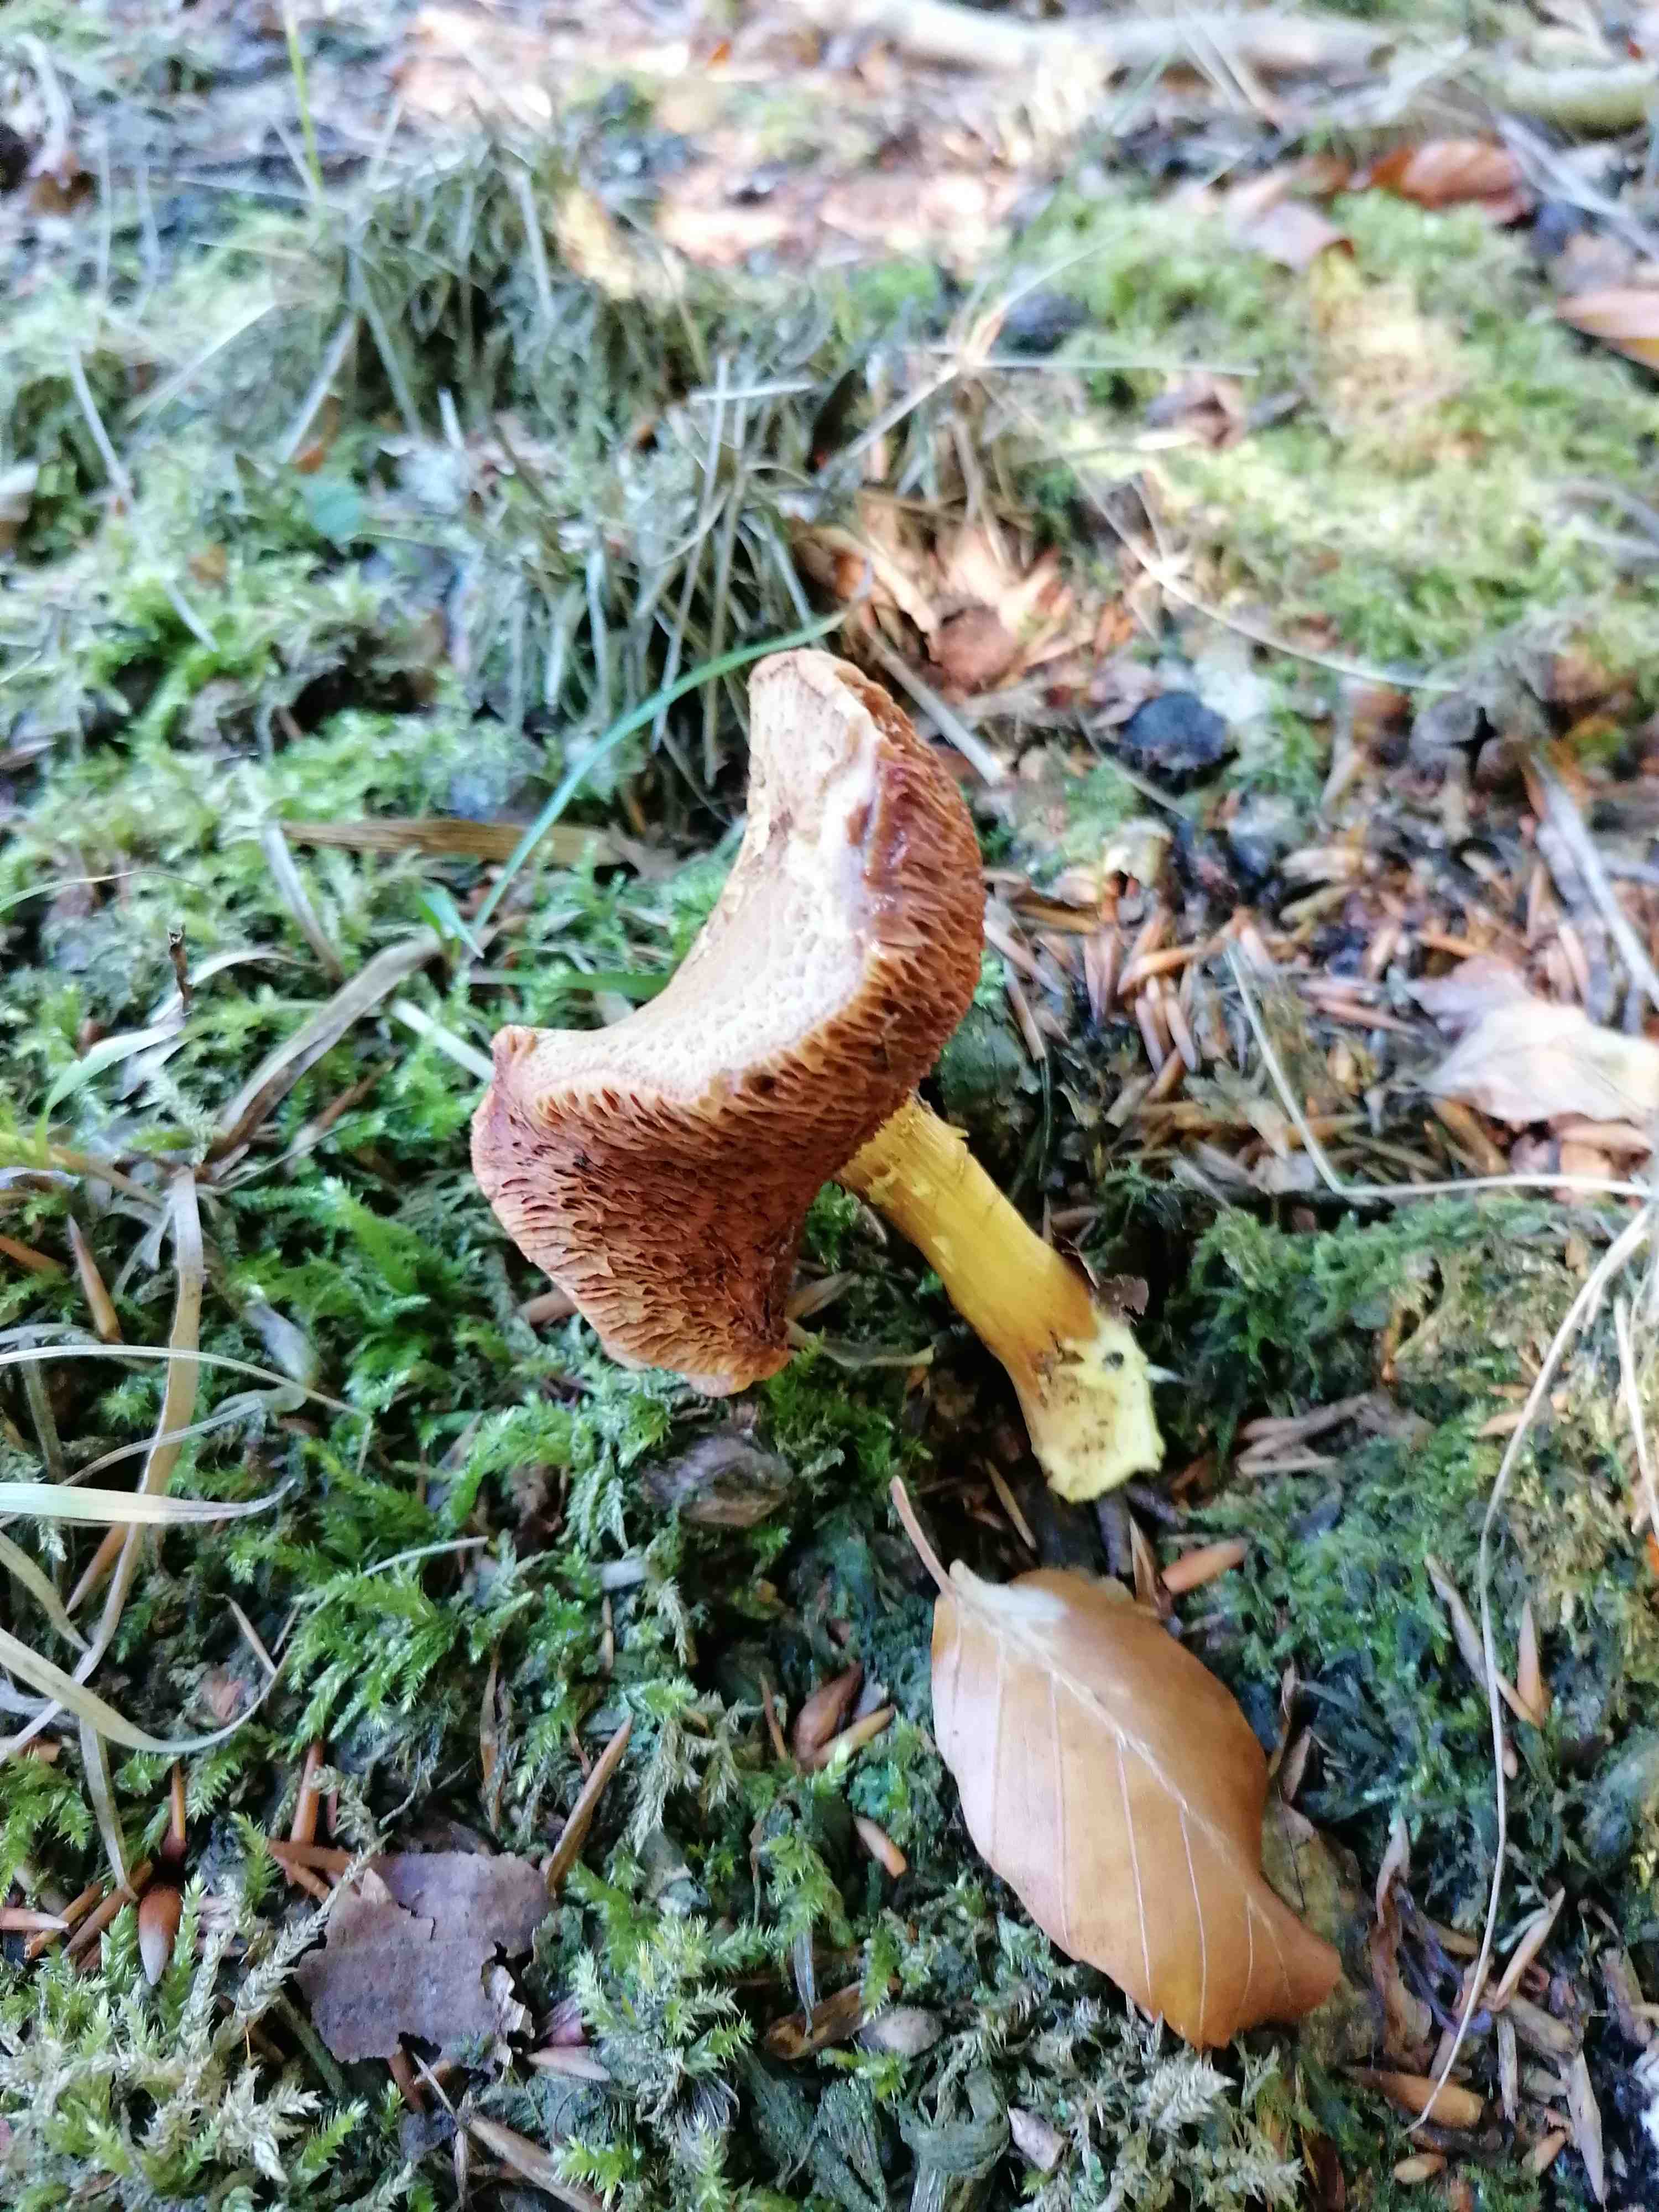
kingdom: Fungi
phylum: Basidiomycota
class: Agaricomycetes
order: Boletales
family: Boletaceae
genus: Chalciporus
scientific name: Chalciporus piperatus
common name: peberrørhat
